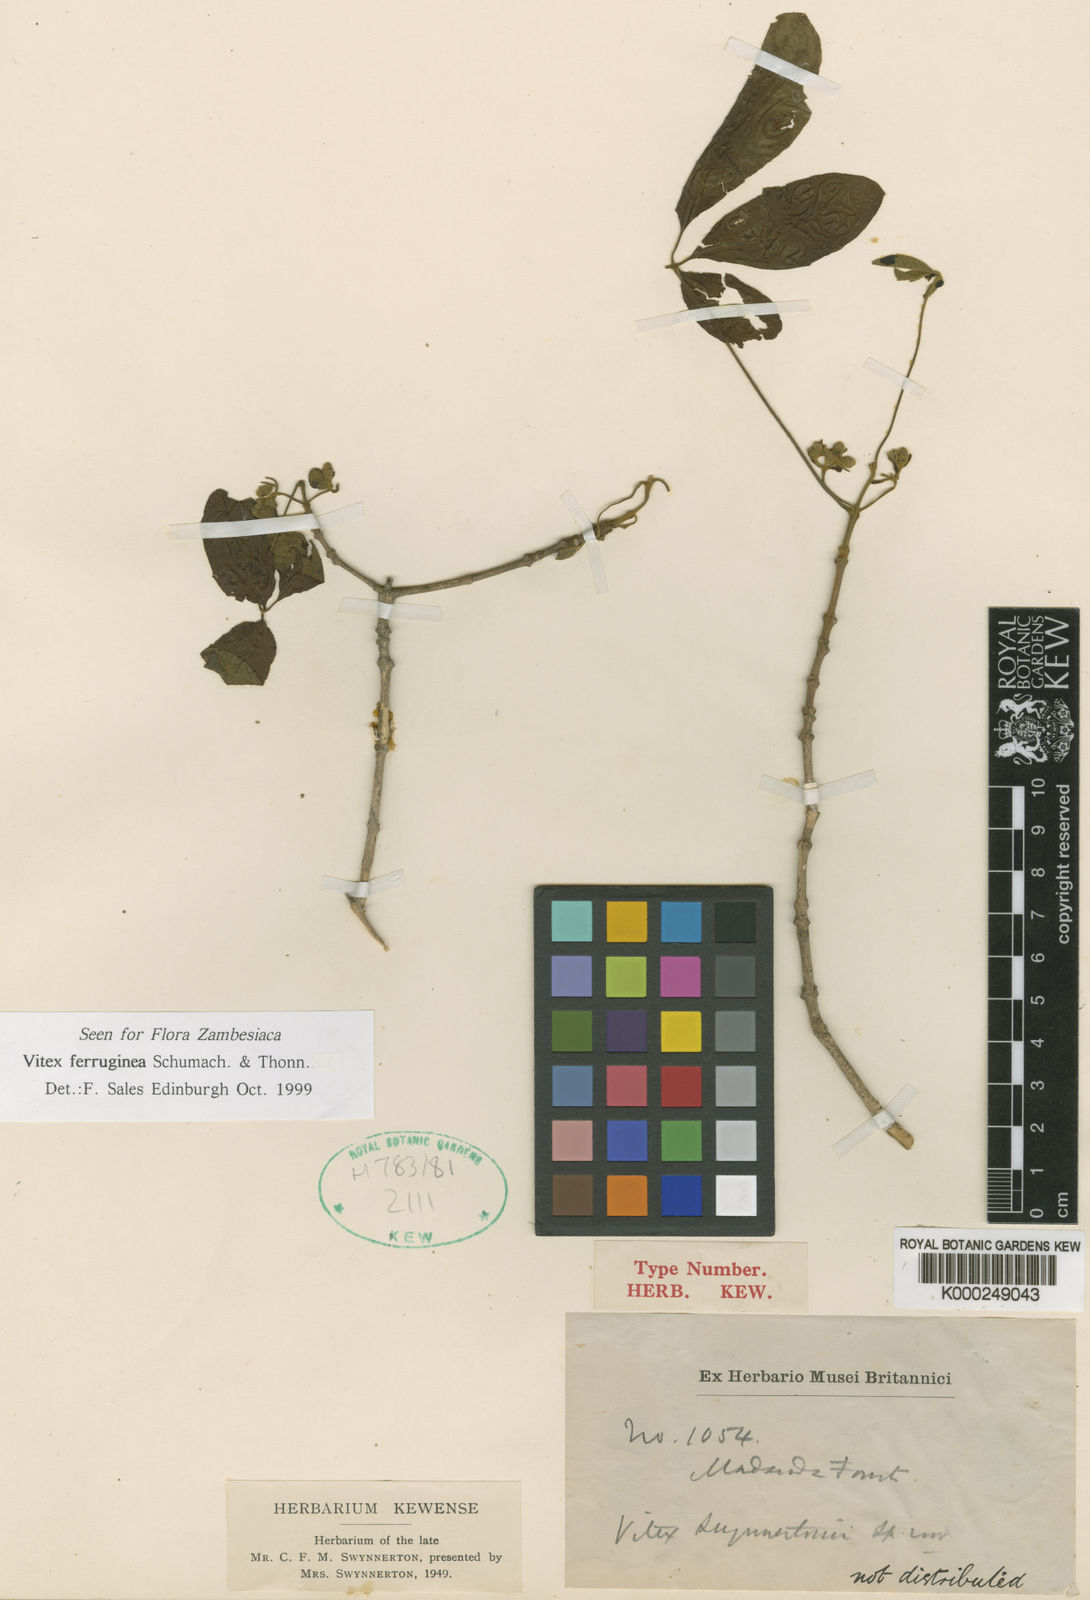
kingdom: Plantae
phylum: Tracheophyta
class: Magnoliopsida
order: Lamiales
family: Lamiaceae
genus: Vitex
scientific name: Vitex ferruginea
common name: Plum fingerleaf
